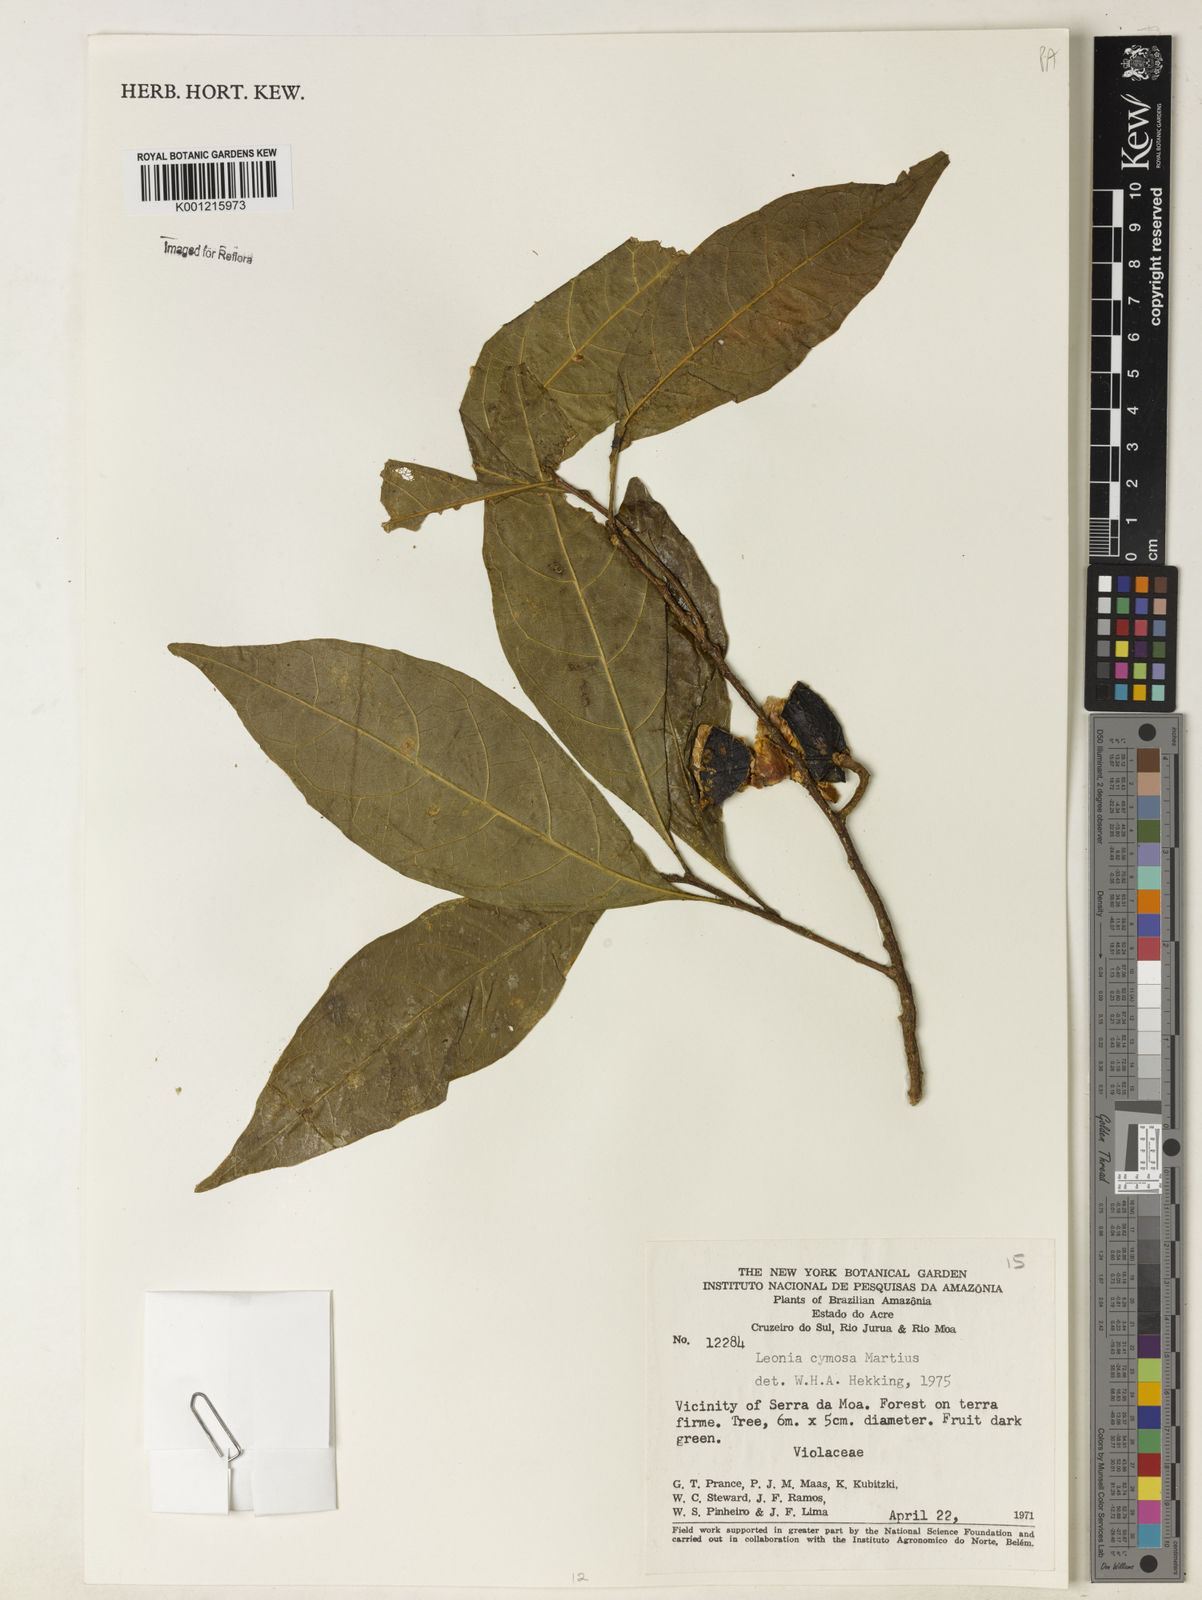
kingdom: Plantae
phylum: Tracheophyta
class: Magnoliopsida
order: Malpighiales
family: Violaceae
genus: Leonia
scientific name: Leonia cymosa
